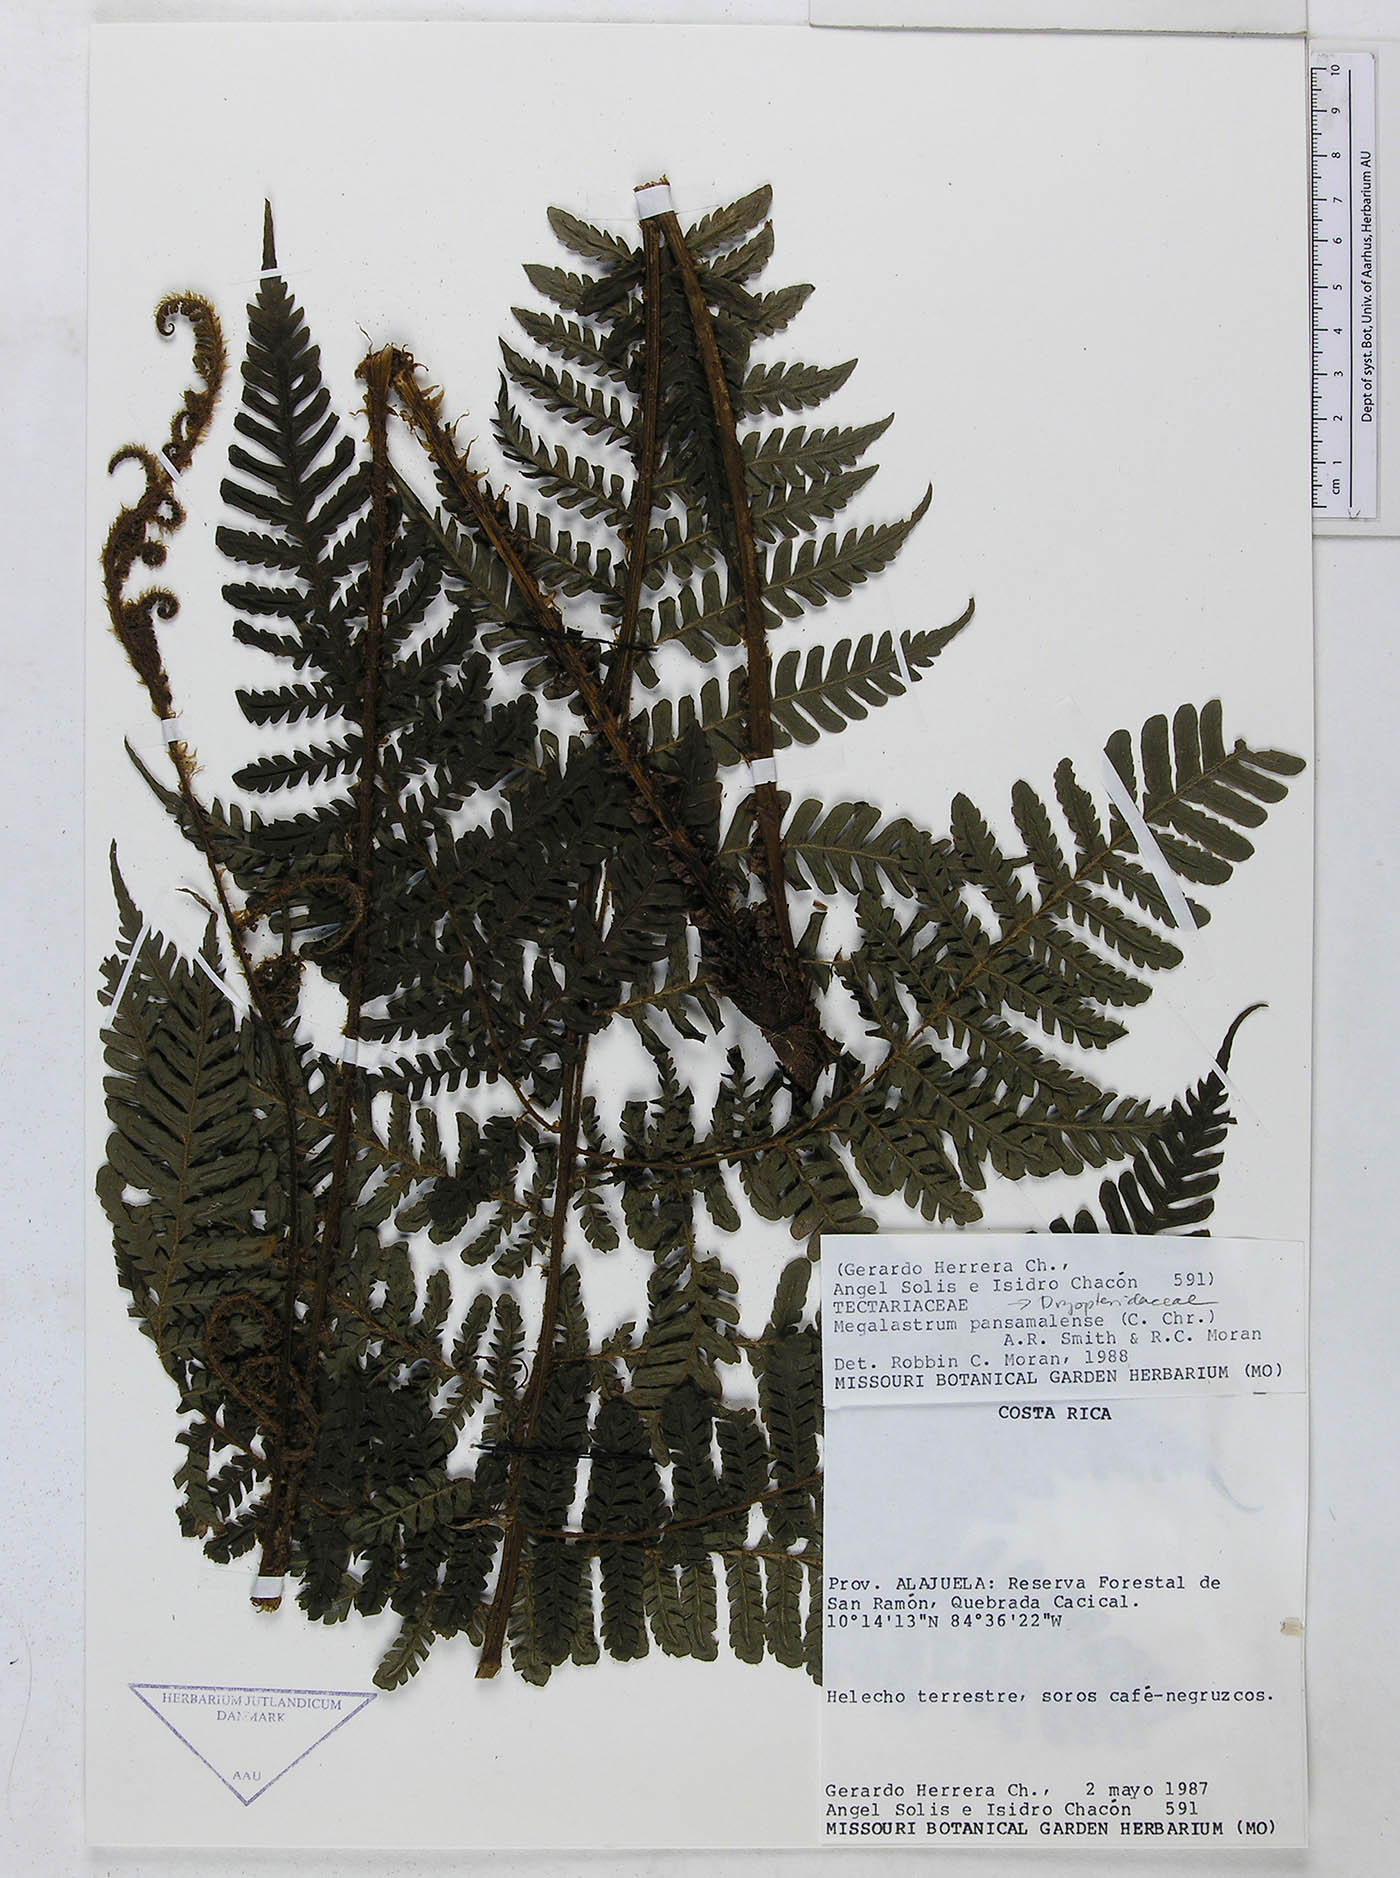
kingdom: Plantae
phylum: Tracheophyta
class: Polypodiopsida
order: Polypodiales
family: Dryopteridaceae
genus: Megalastrum
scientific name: Megalastrum lunense
